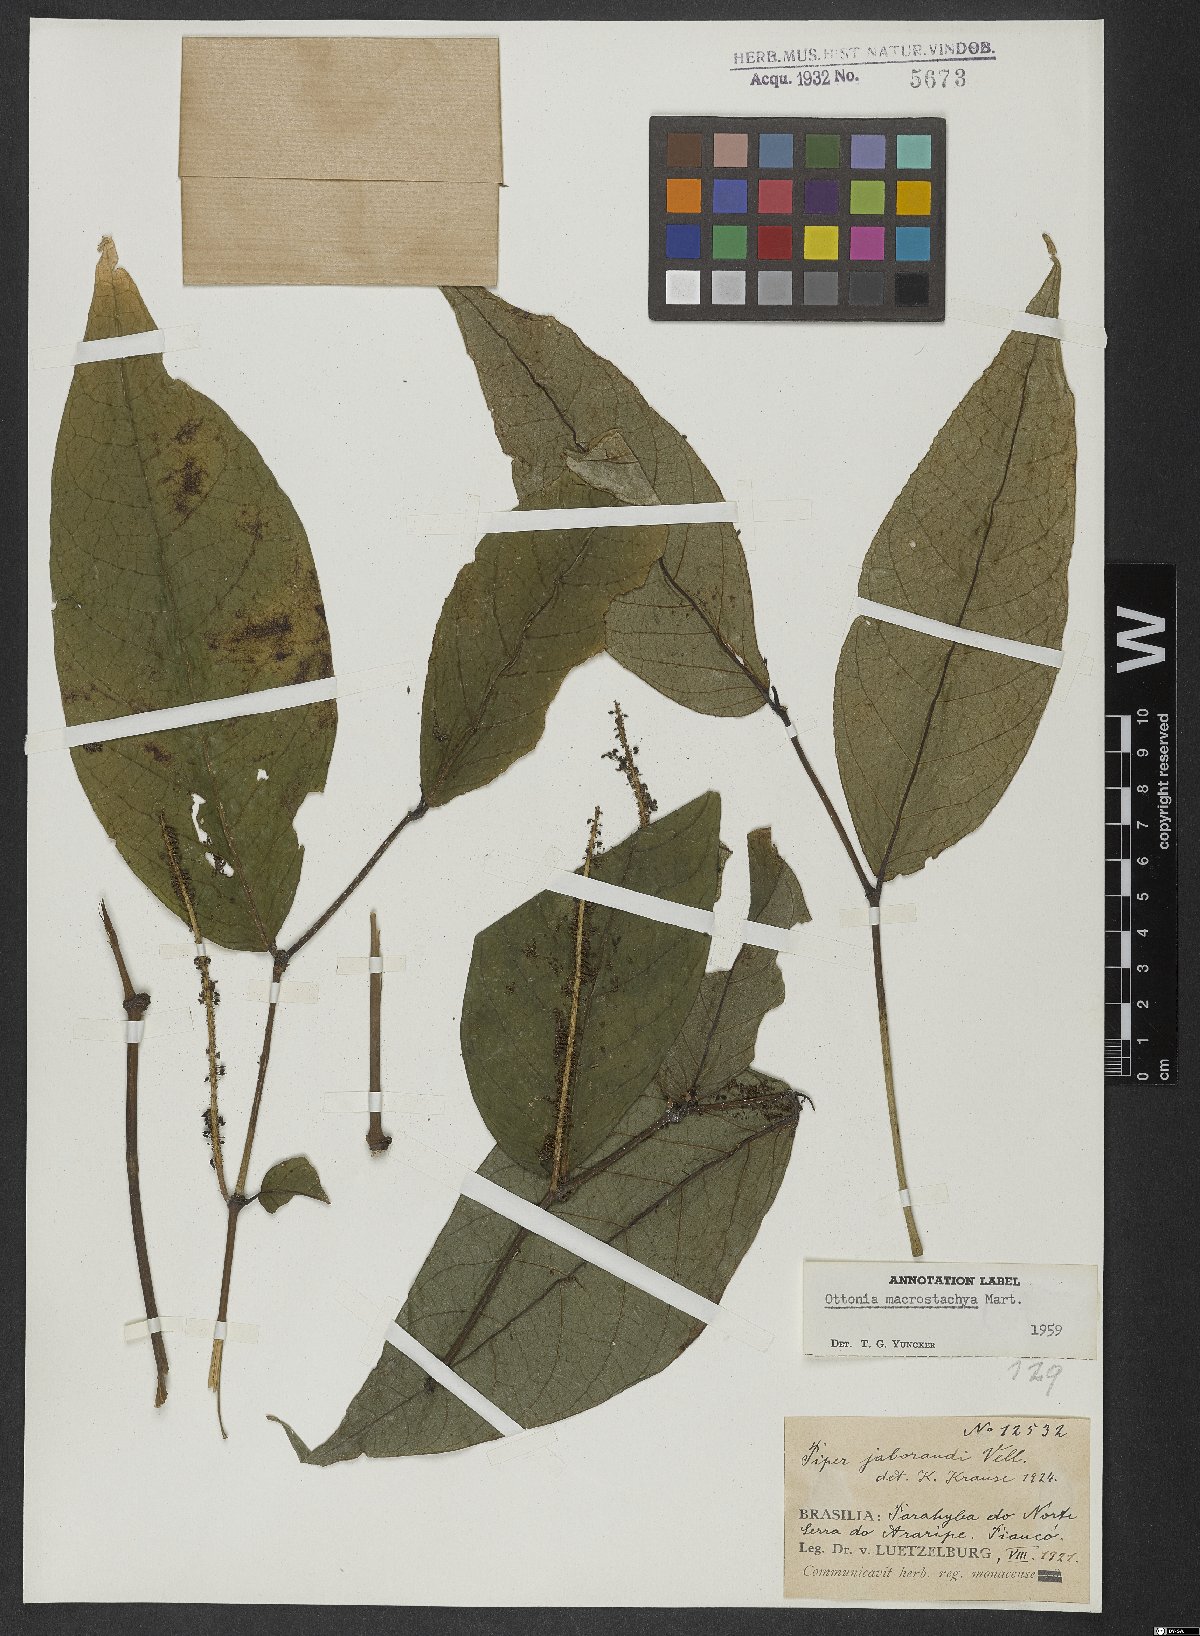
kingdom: Plantae
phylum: Tracheophyta
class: Magnoliopsida
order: Piperales
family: Piperaceae
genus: Peperomia
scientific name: Peperomia macrostachyos
